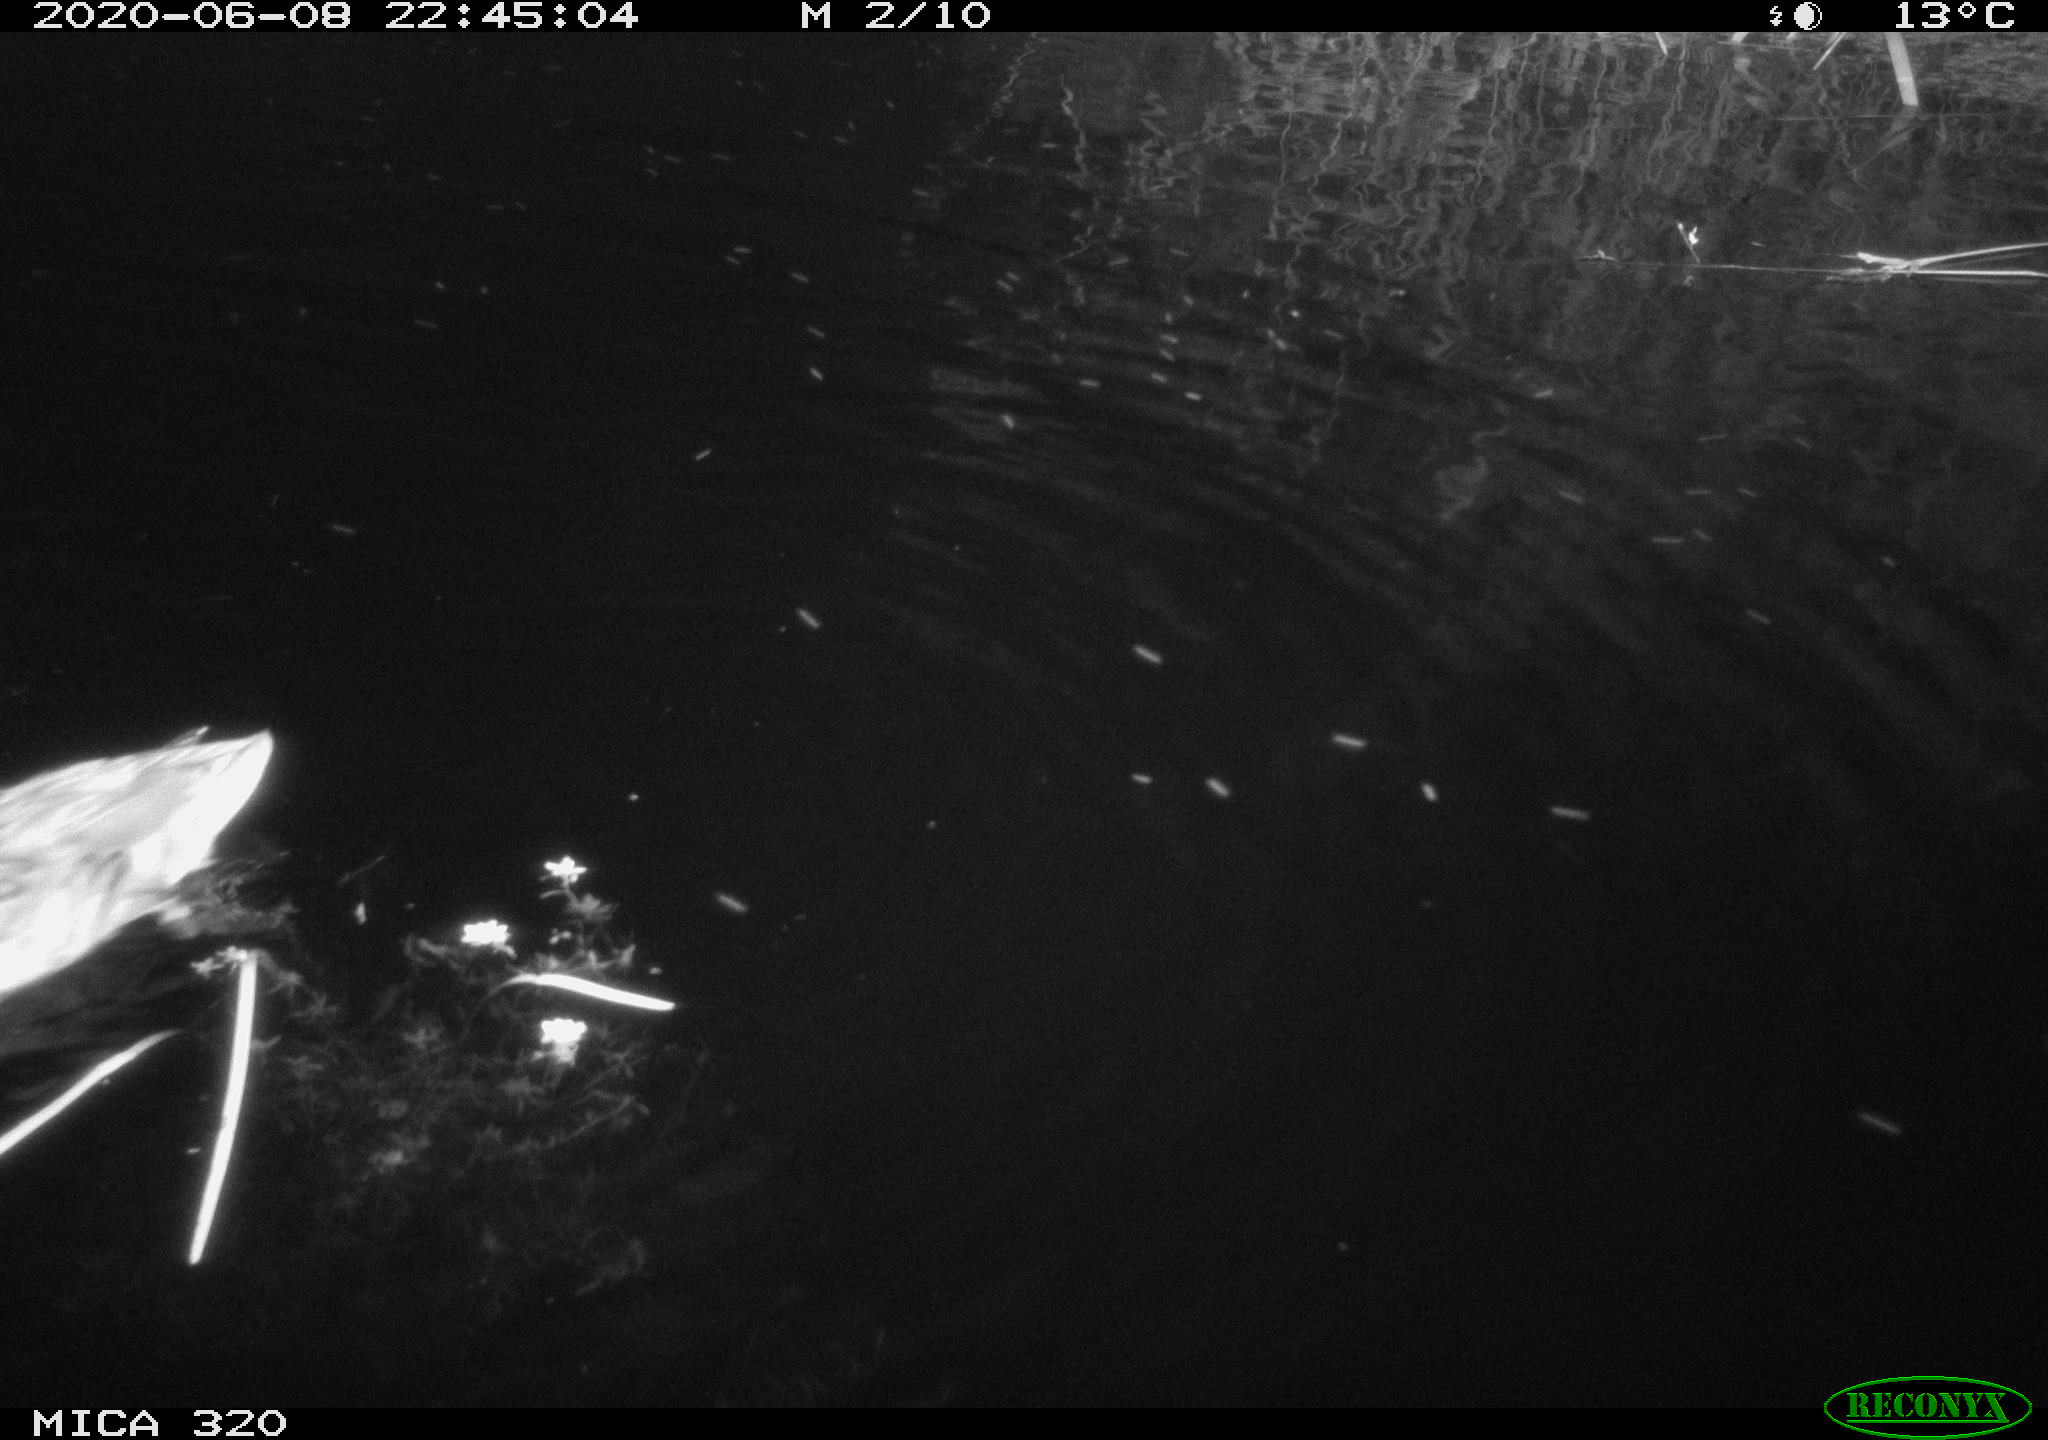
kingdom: Animalia
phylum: Chordata
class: Aves
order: Anseriformes
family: Anatidae
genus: Anas
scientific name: Anas platyrhynchos
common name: Mallard
